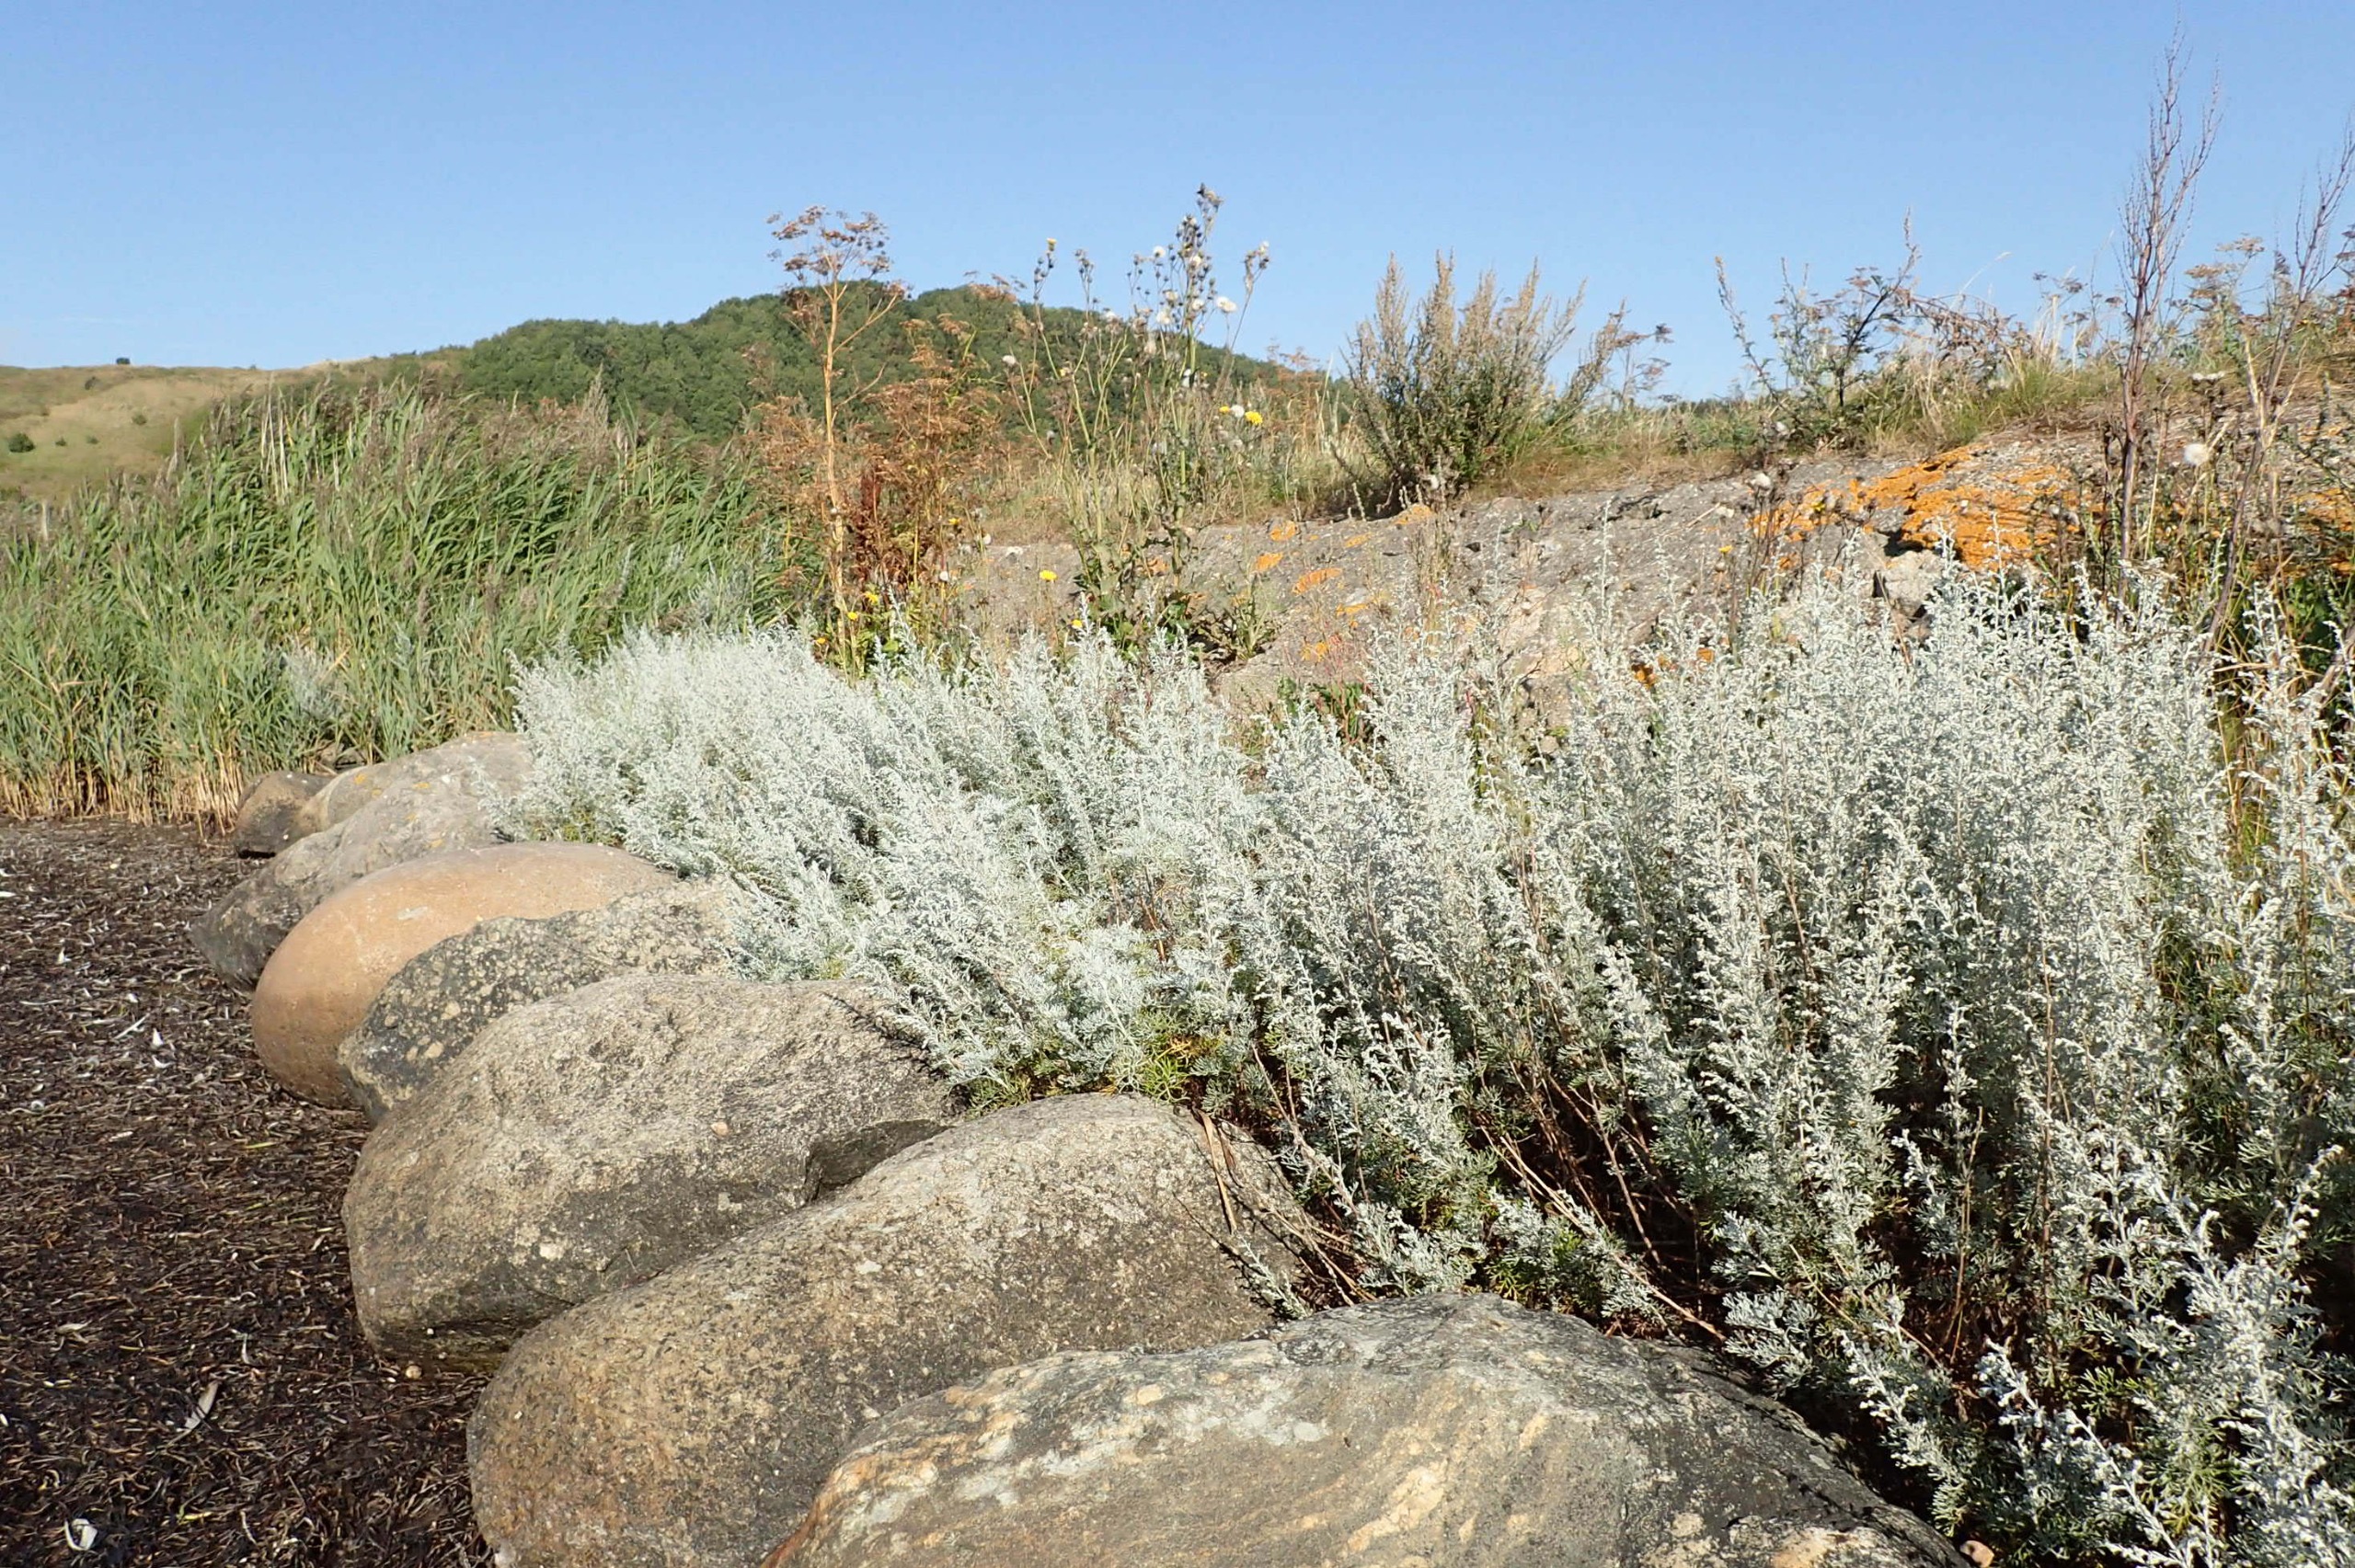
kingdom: Plantae
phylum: Tracheophyta
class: Magnoliopsida
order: Asterales
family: Asteraceae
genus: Artemisia
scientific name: Artemisia maritima
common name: Strandmalurt
